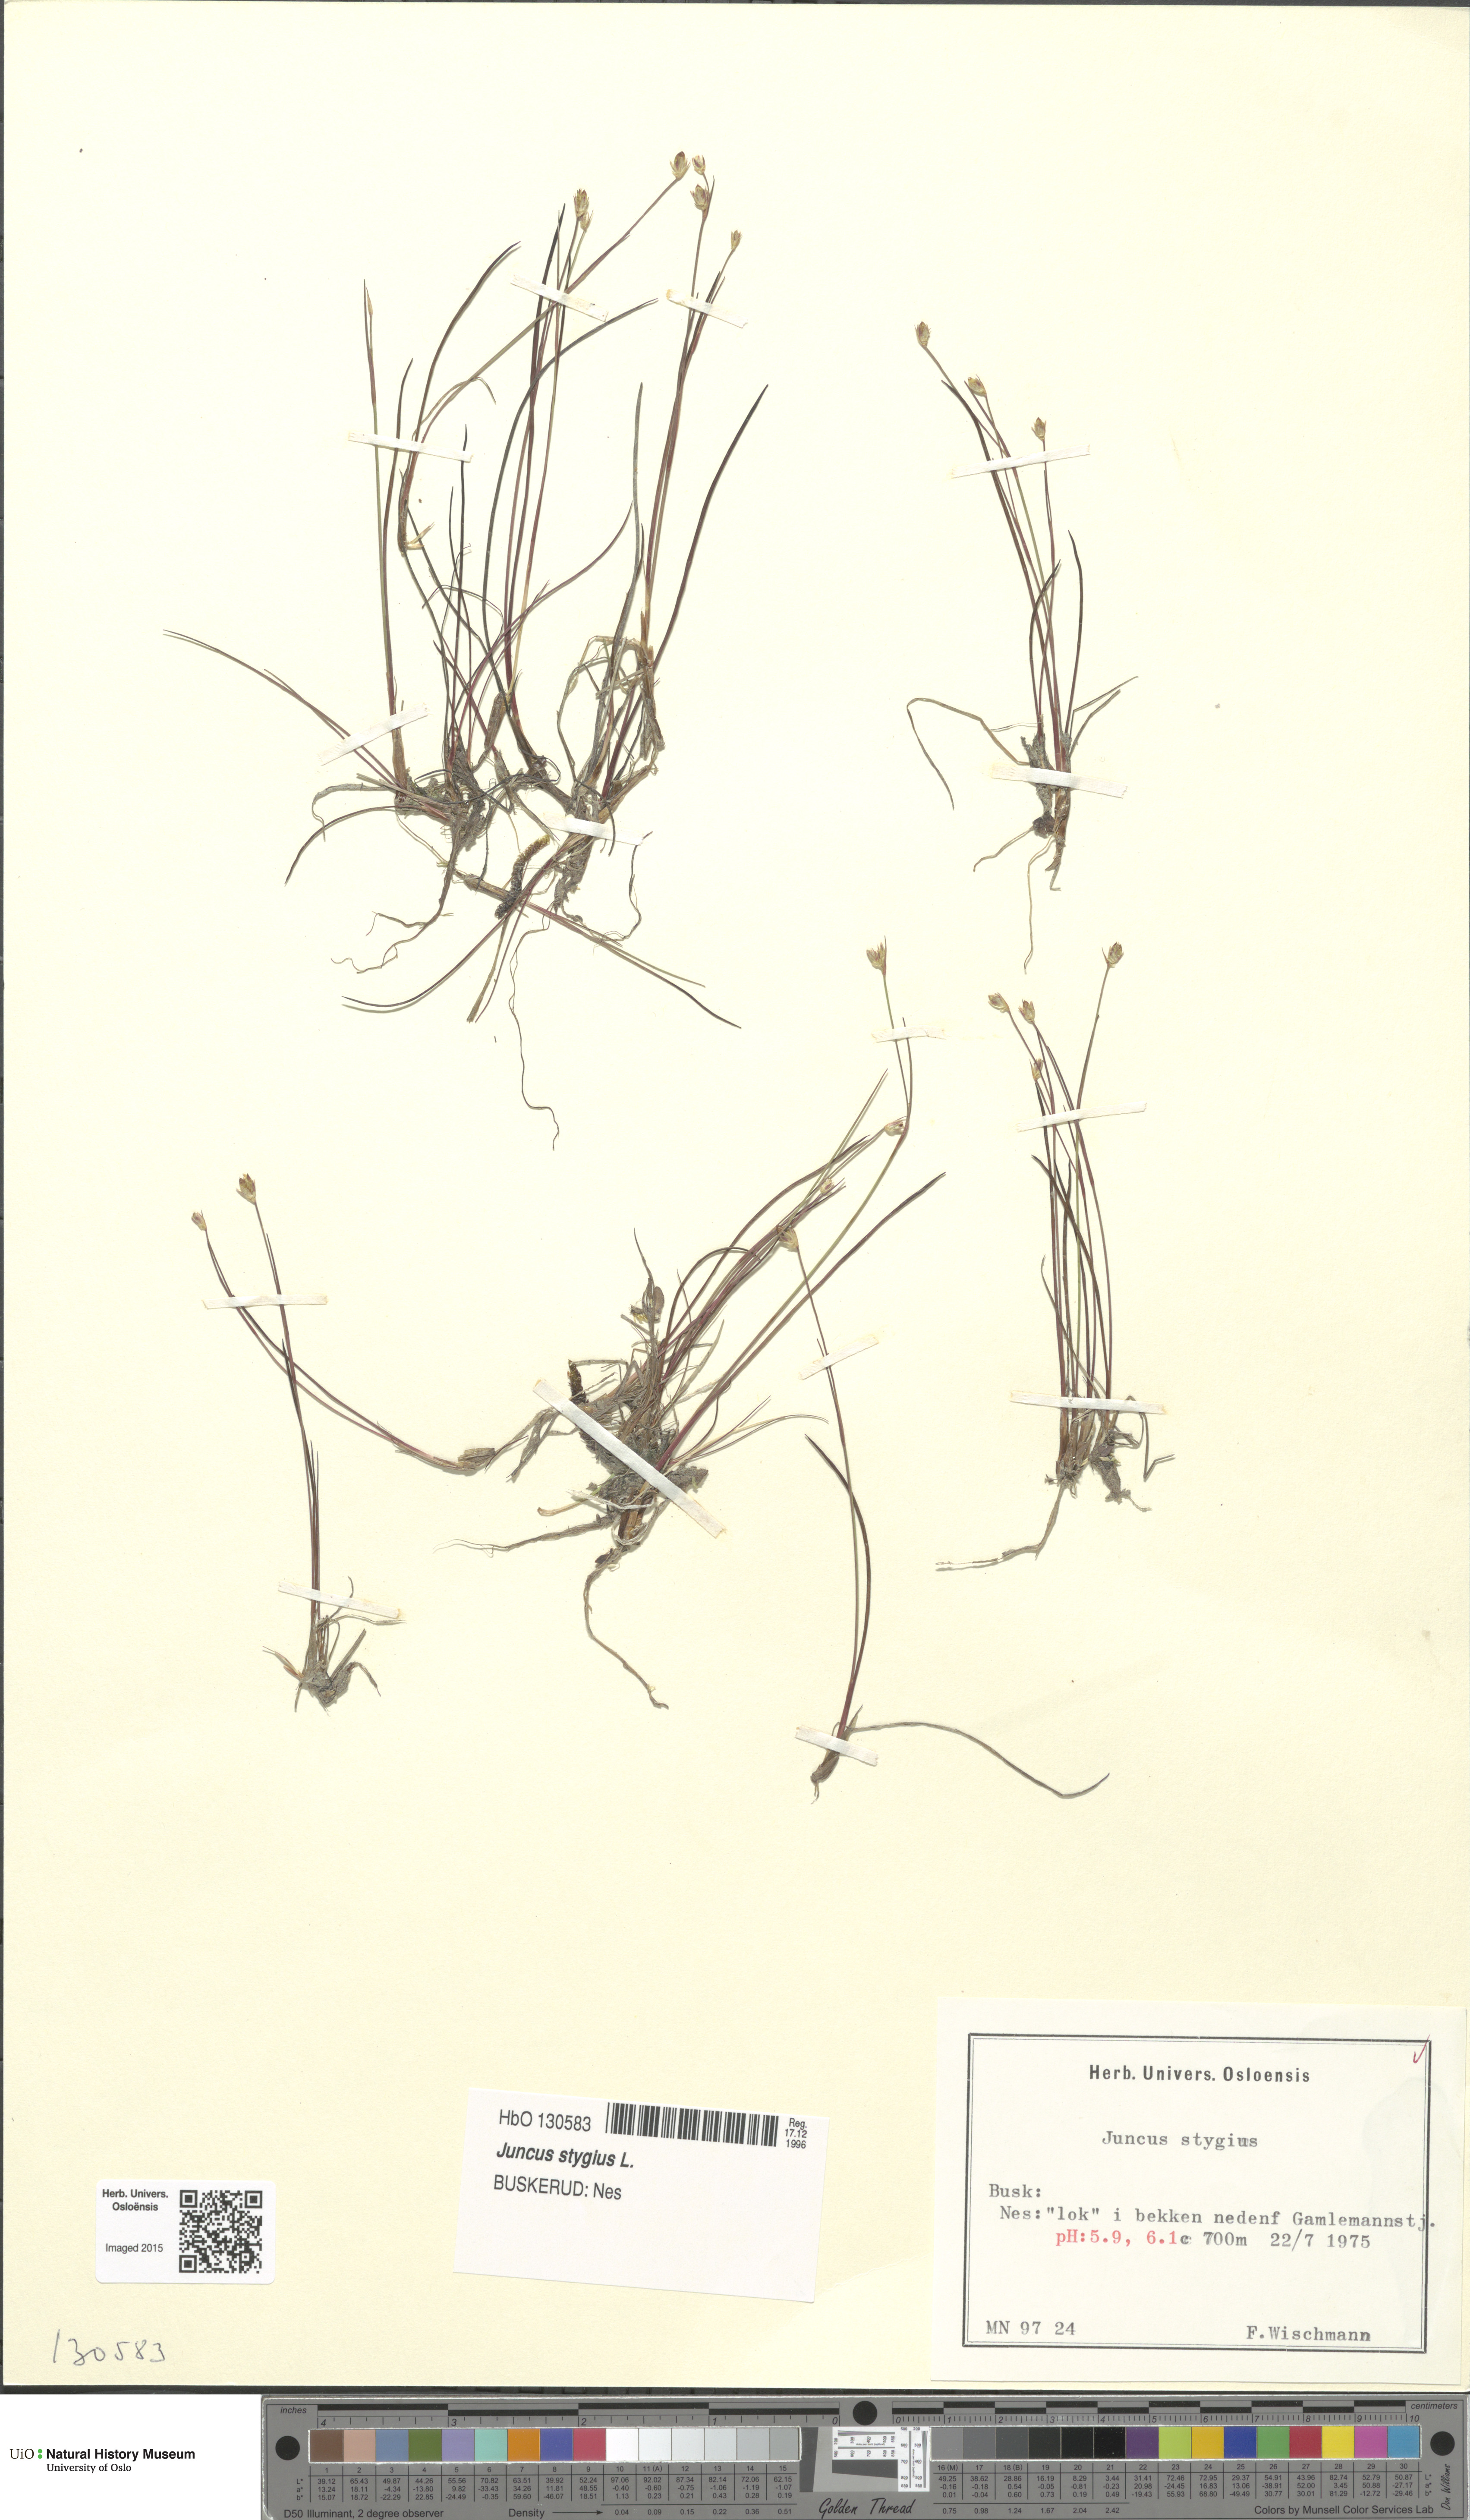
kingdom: Plantae
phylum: Tracheophyta
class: Liliopsida
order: Poales
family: Juncaceae
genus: Juncus
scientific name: Juncus stygius
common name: Bog rush
